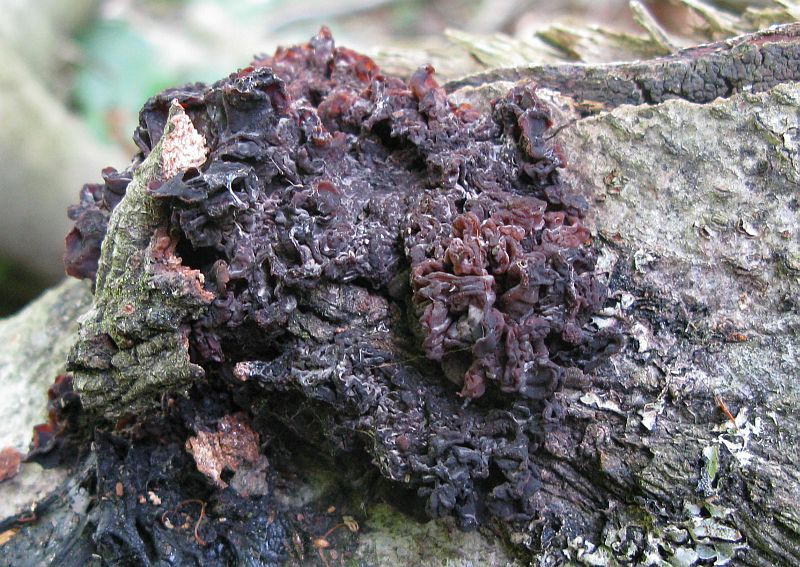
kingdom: Fungi
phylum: Basidiomycota
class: Tremellomycetes
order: Tremellales
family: Tremellaceae
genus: Phaeotremella
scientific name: Phaeotremella frondosa
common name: kæmpe-bævresvamp
